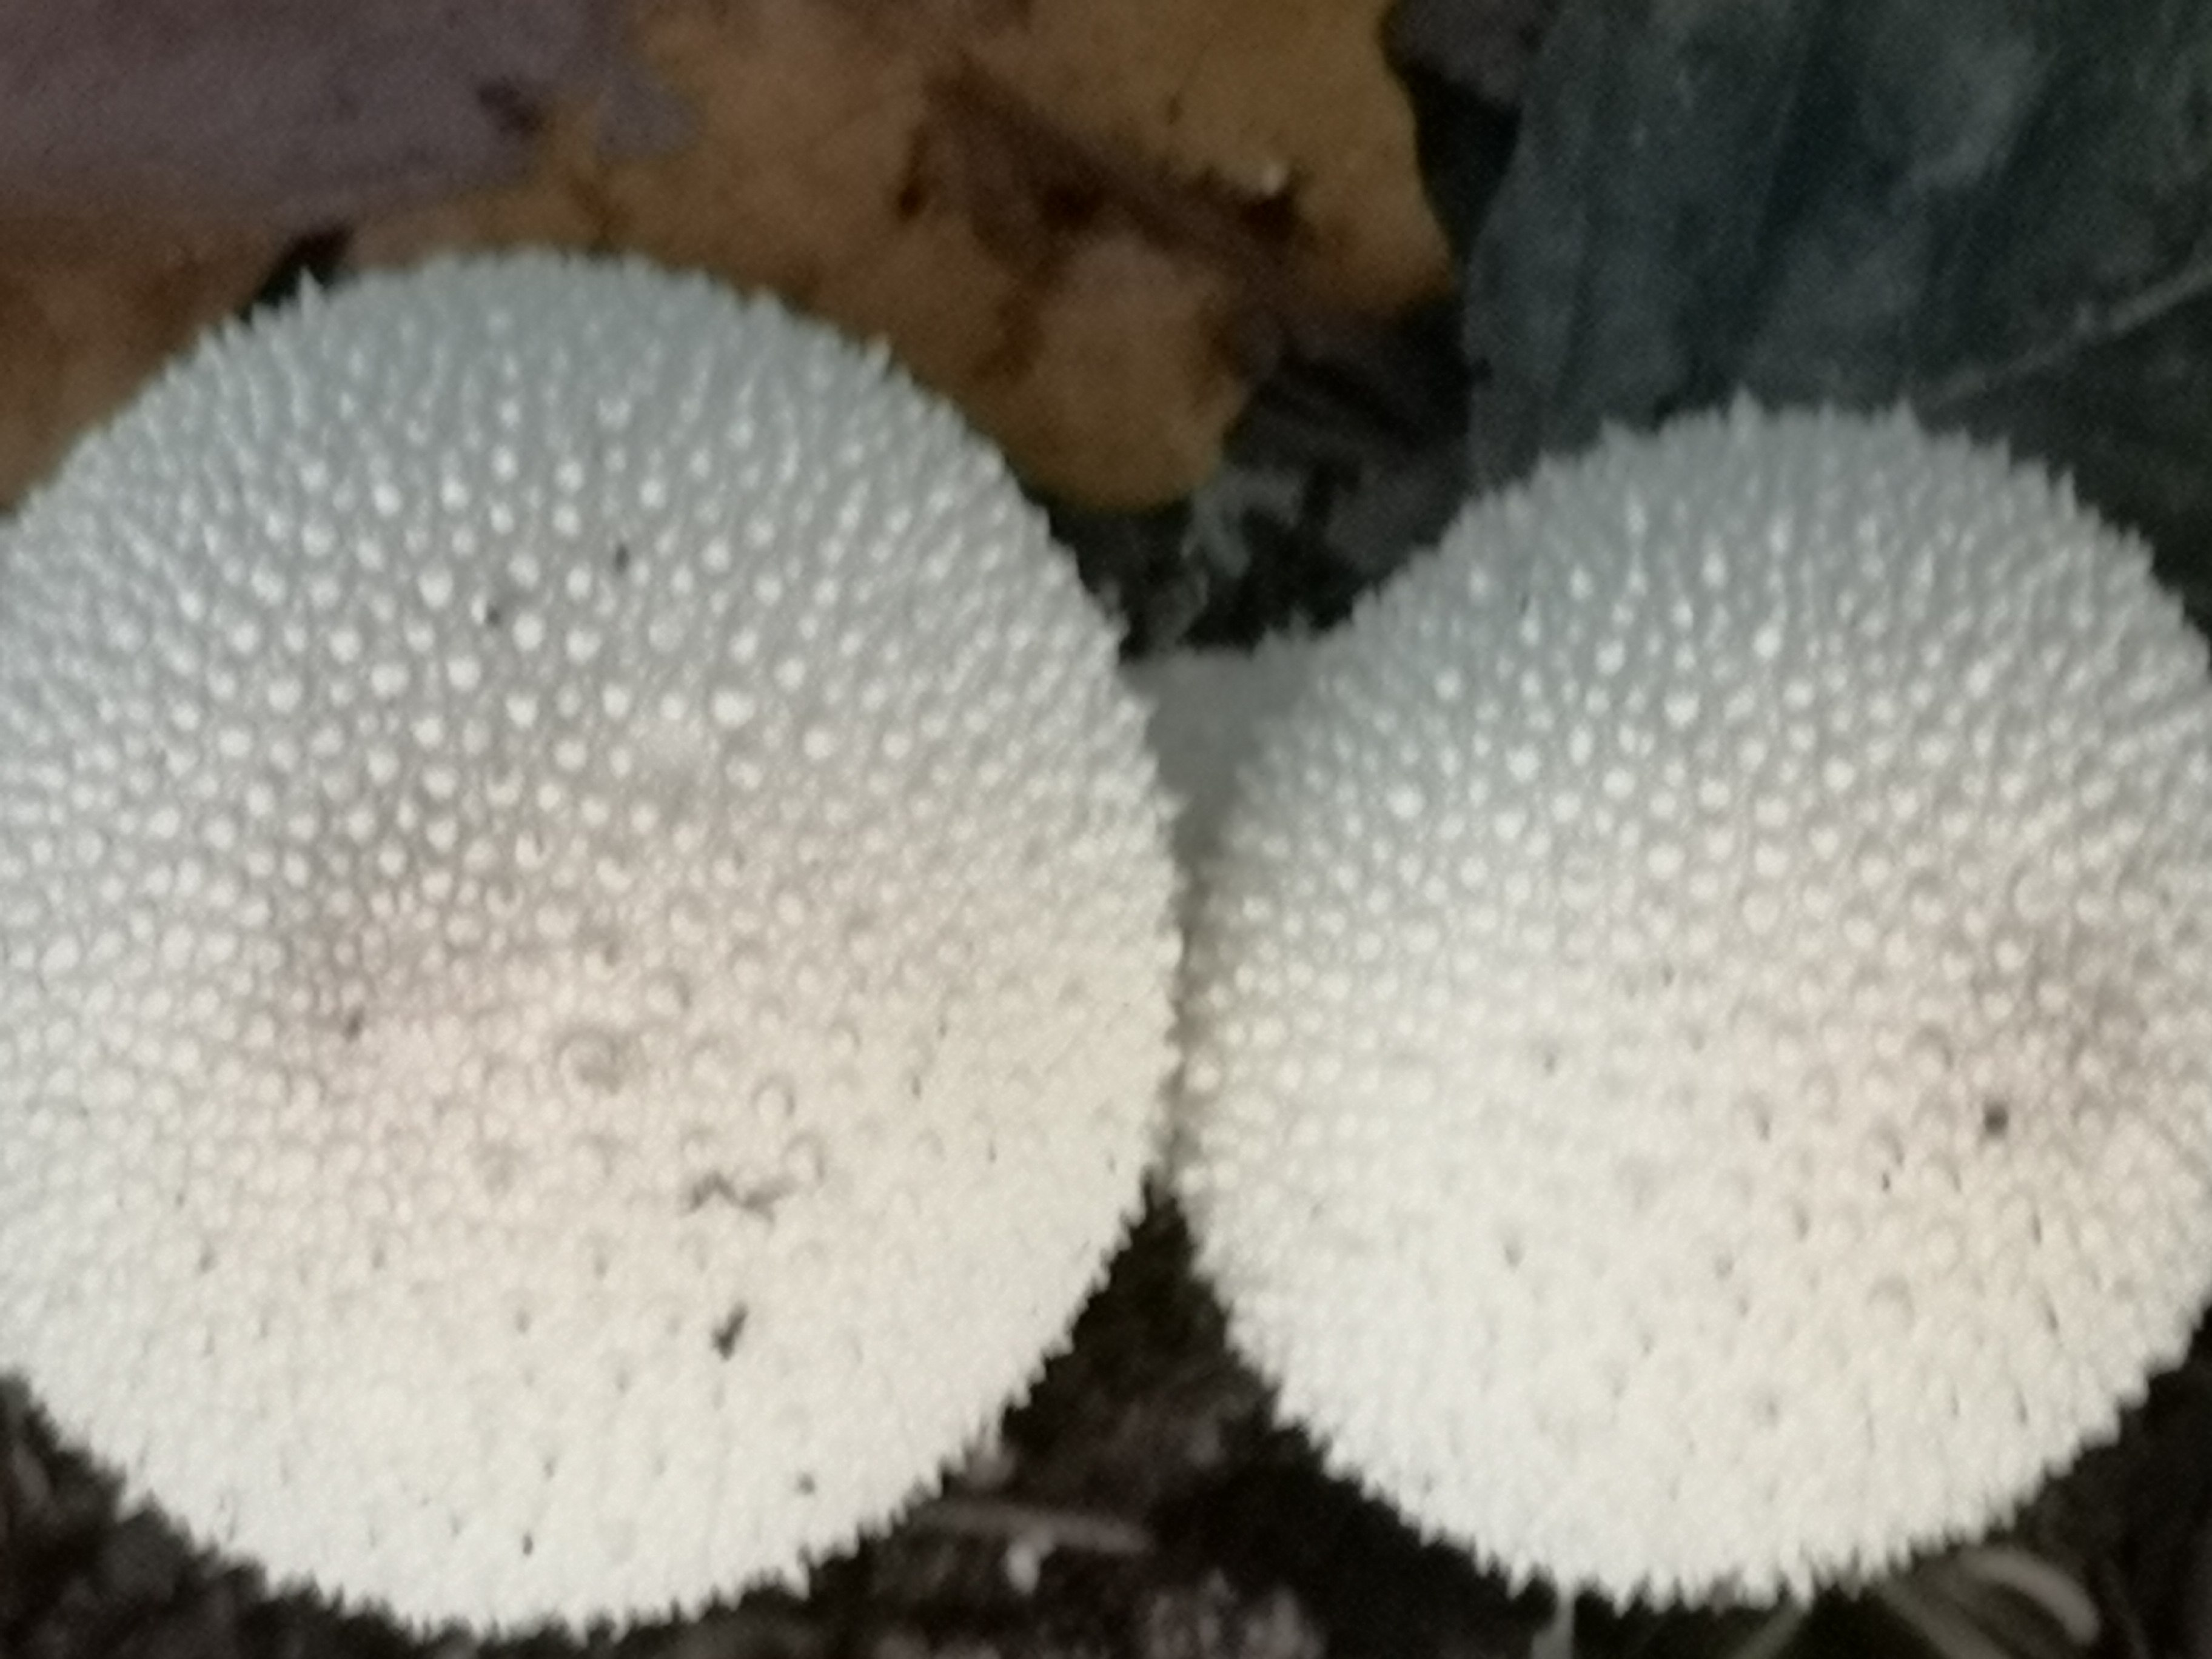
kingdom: Fungi
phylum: Basidiomycota
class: Agaricomycetes
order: Agaricales
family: Lycoperdaceae
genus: Lycoperdon
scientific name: Lycoperdon perlatum
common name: krystal-støvbold
